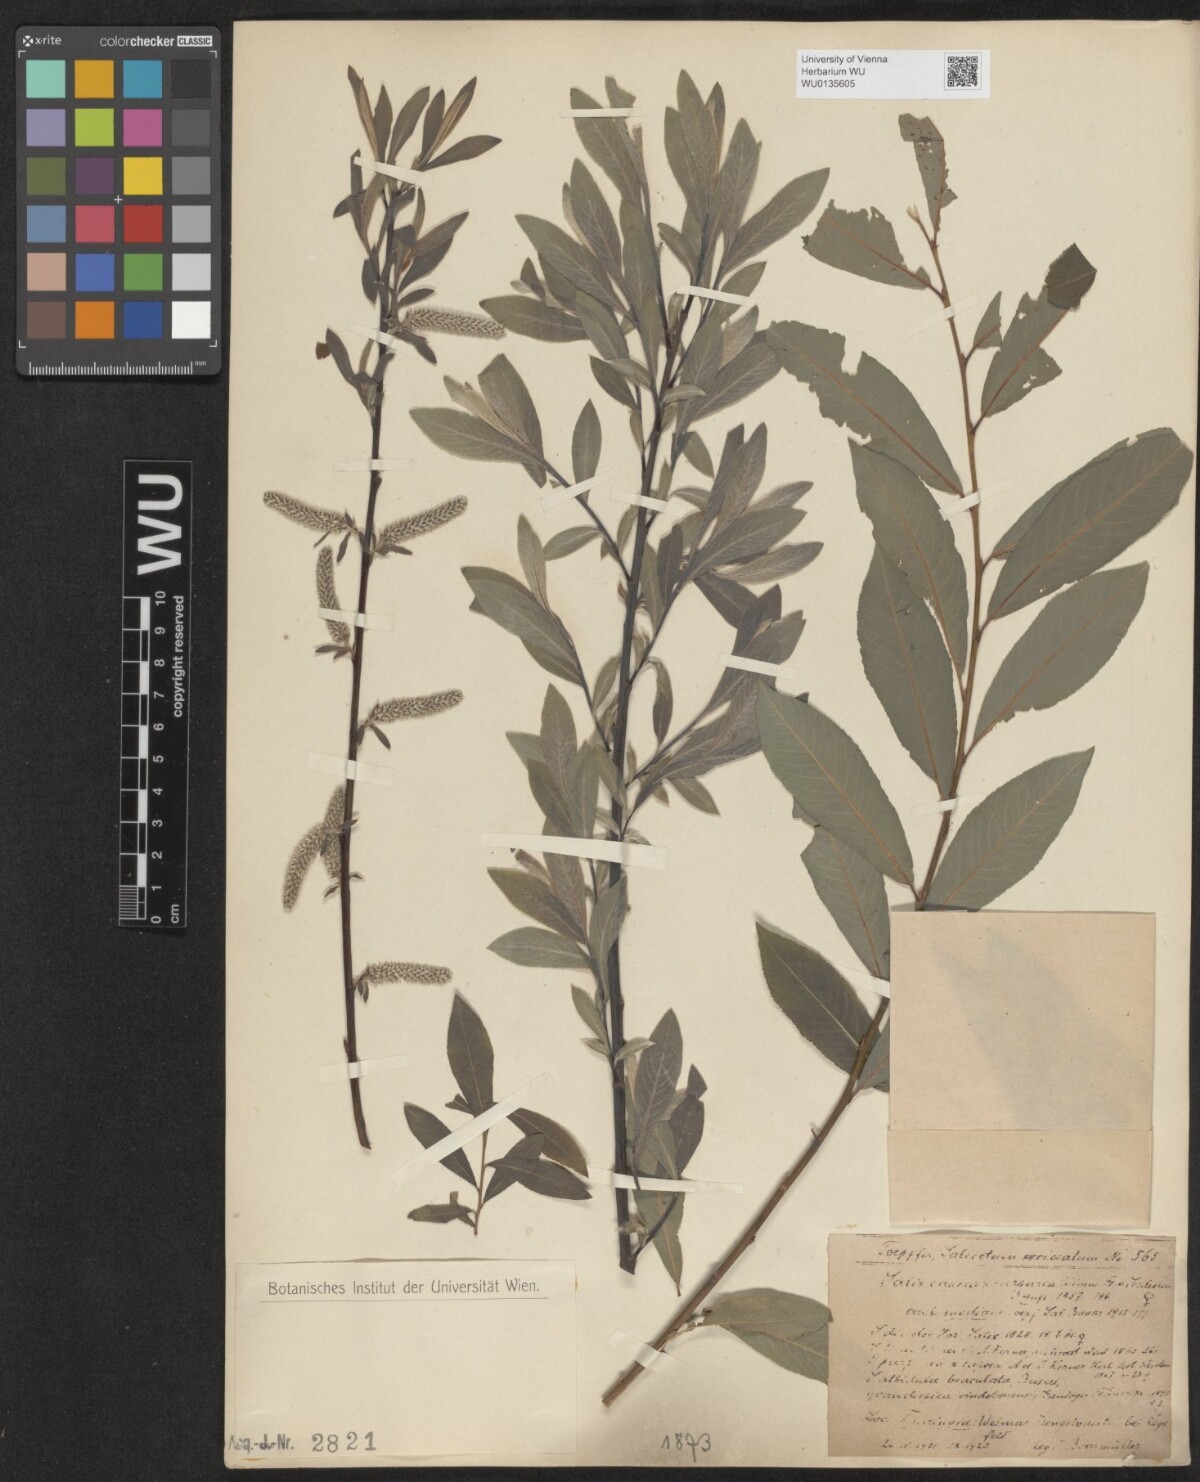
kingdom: Plantae
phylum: Tracheophyta
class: Magnoliopsida
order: Malpighiales
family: Salicaceae
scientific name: Salicaceae
